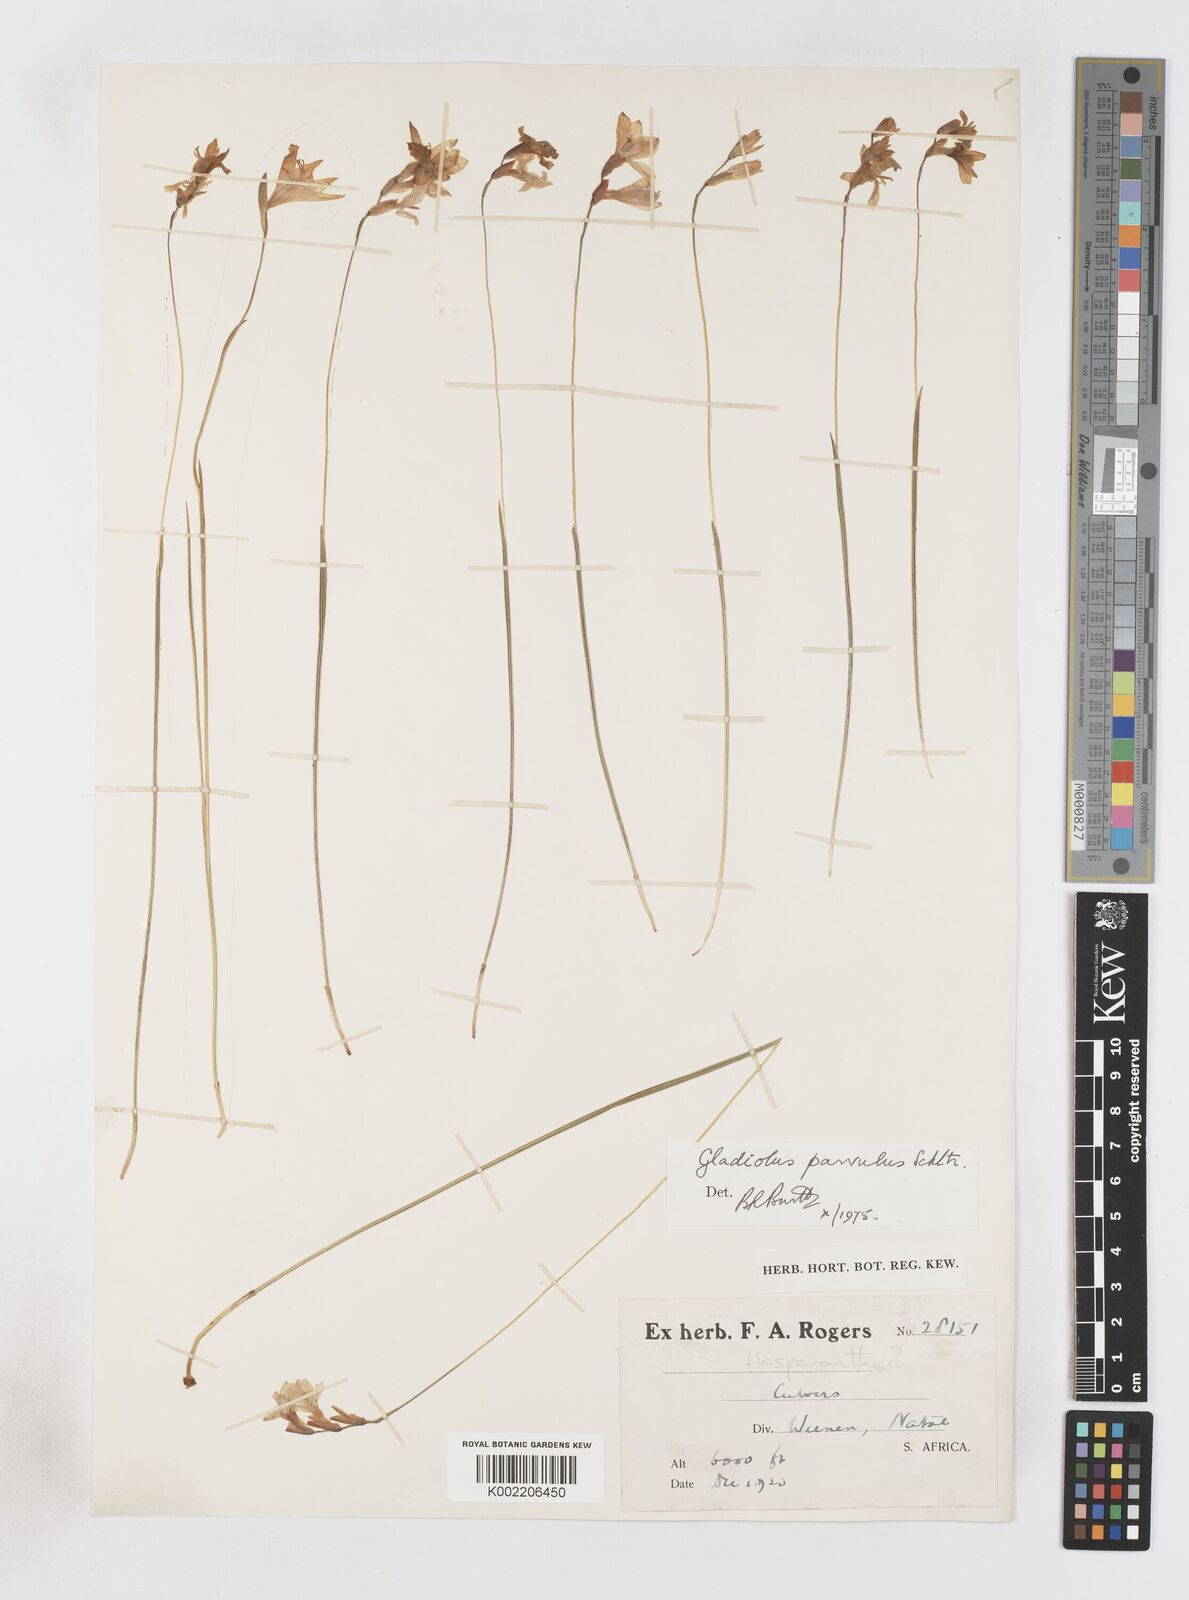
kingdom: Plantae
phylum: Tracheophyta
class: Liliopsida
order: Asparagales
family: Iridaceae
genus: Gladiolus
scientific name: Gladiolus parvulus
